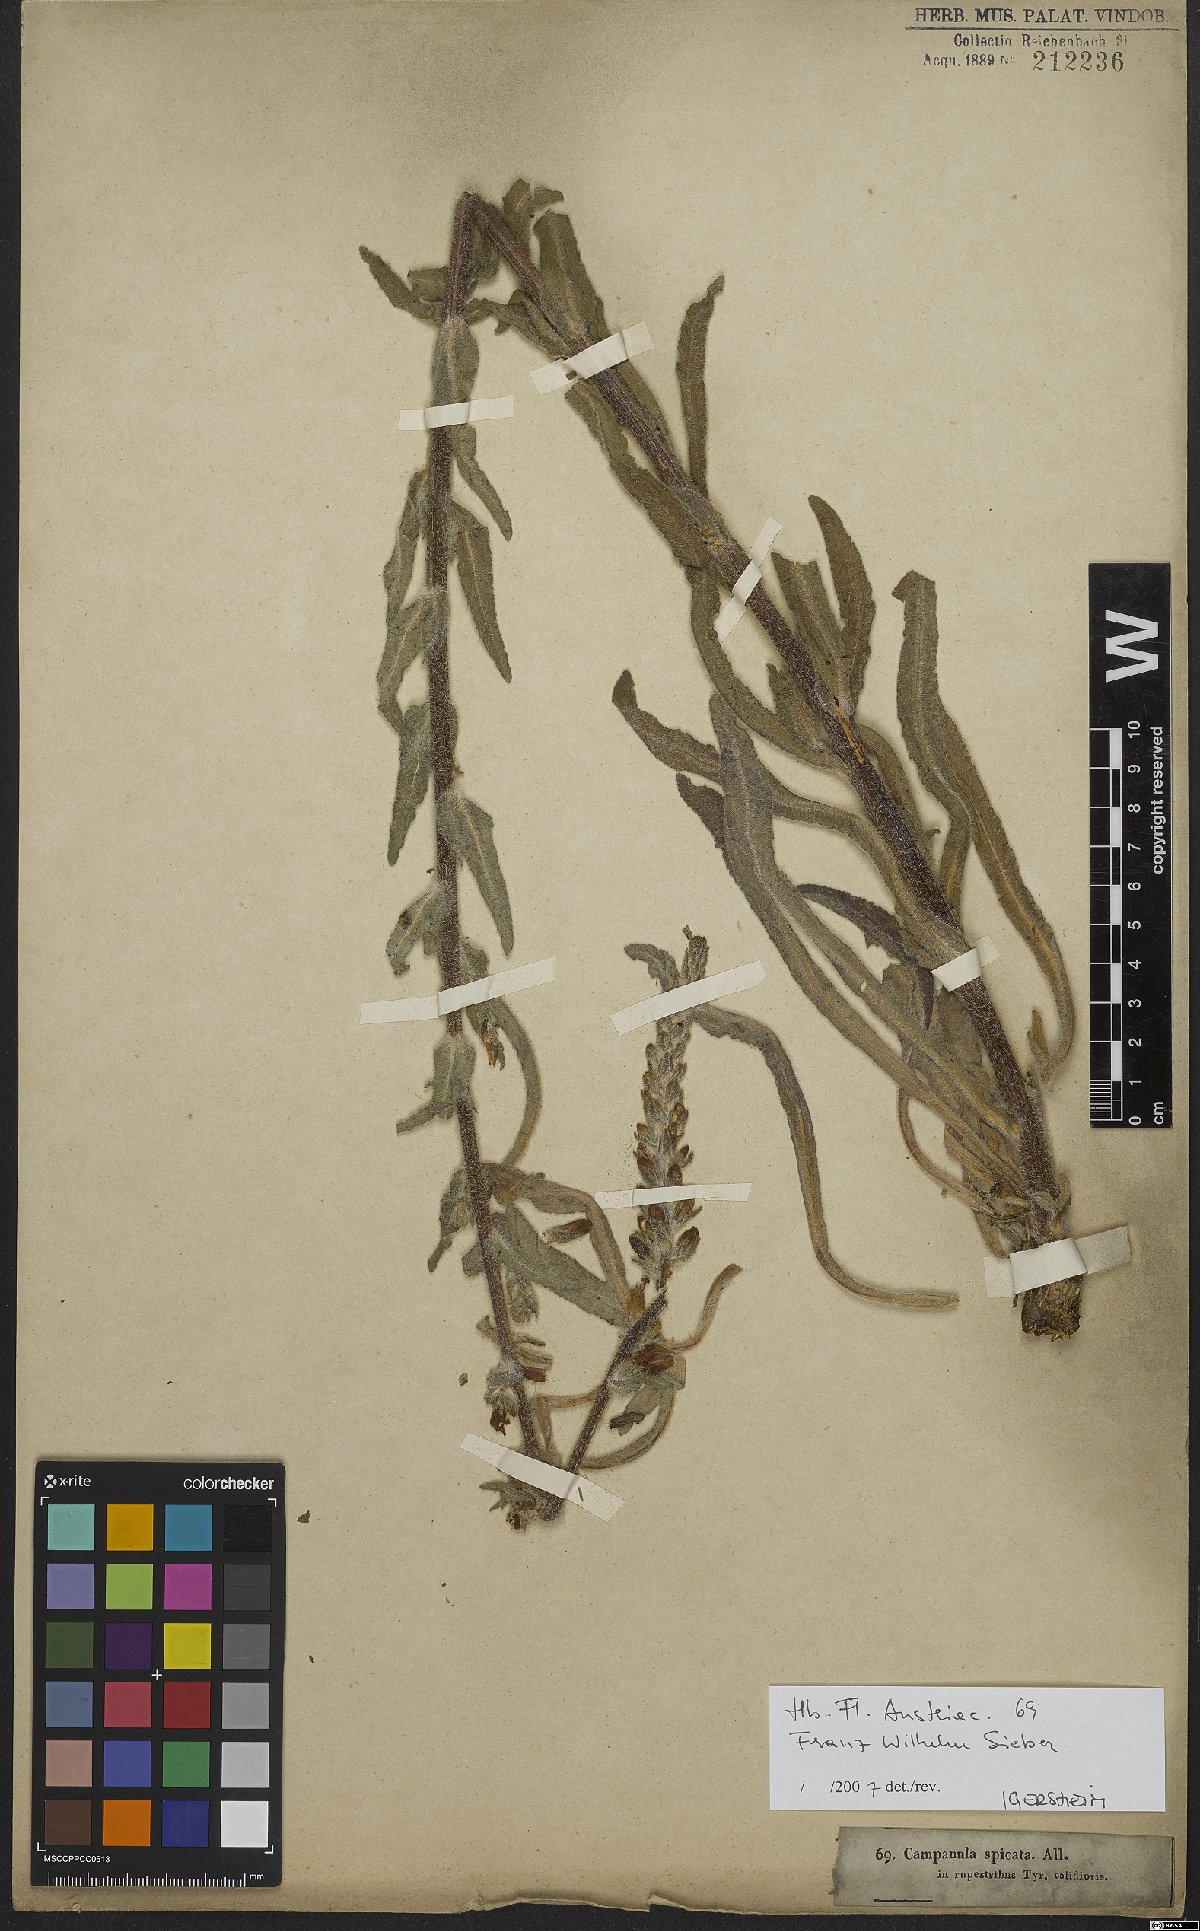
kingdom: Plantae
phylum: Tracheophyta
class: Magnoliopsida
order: Asterales
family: Campanulaceae
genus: Campanula
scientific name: Campanula spicata
